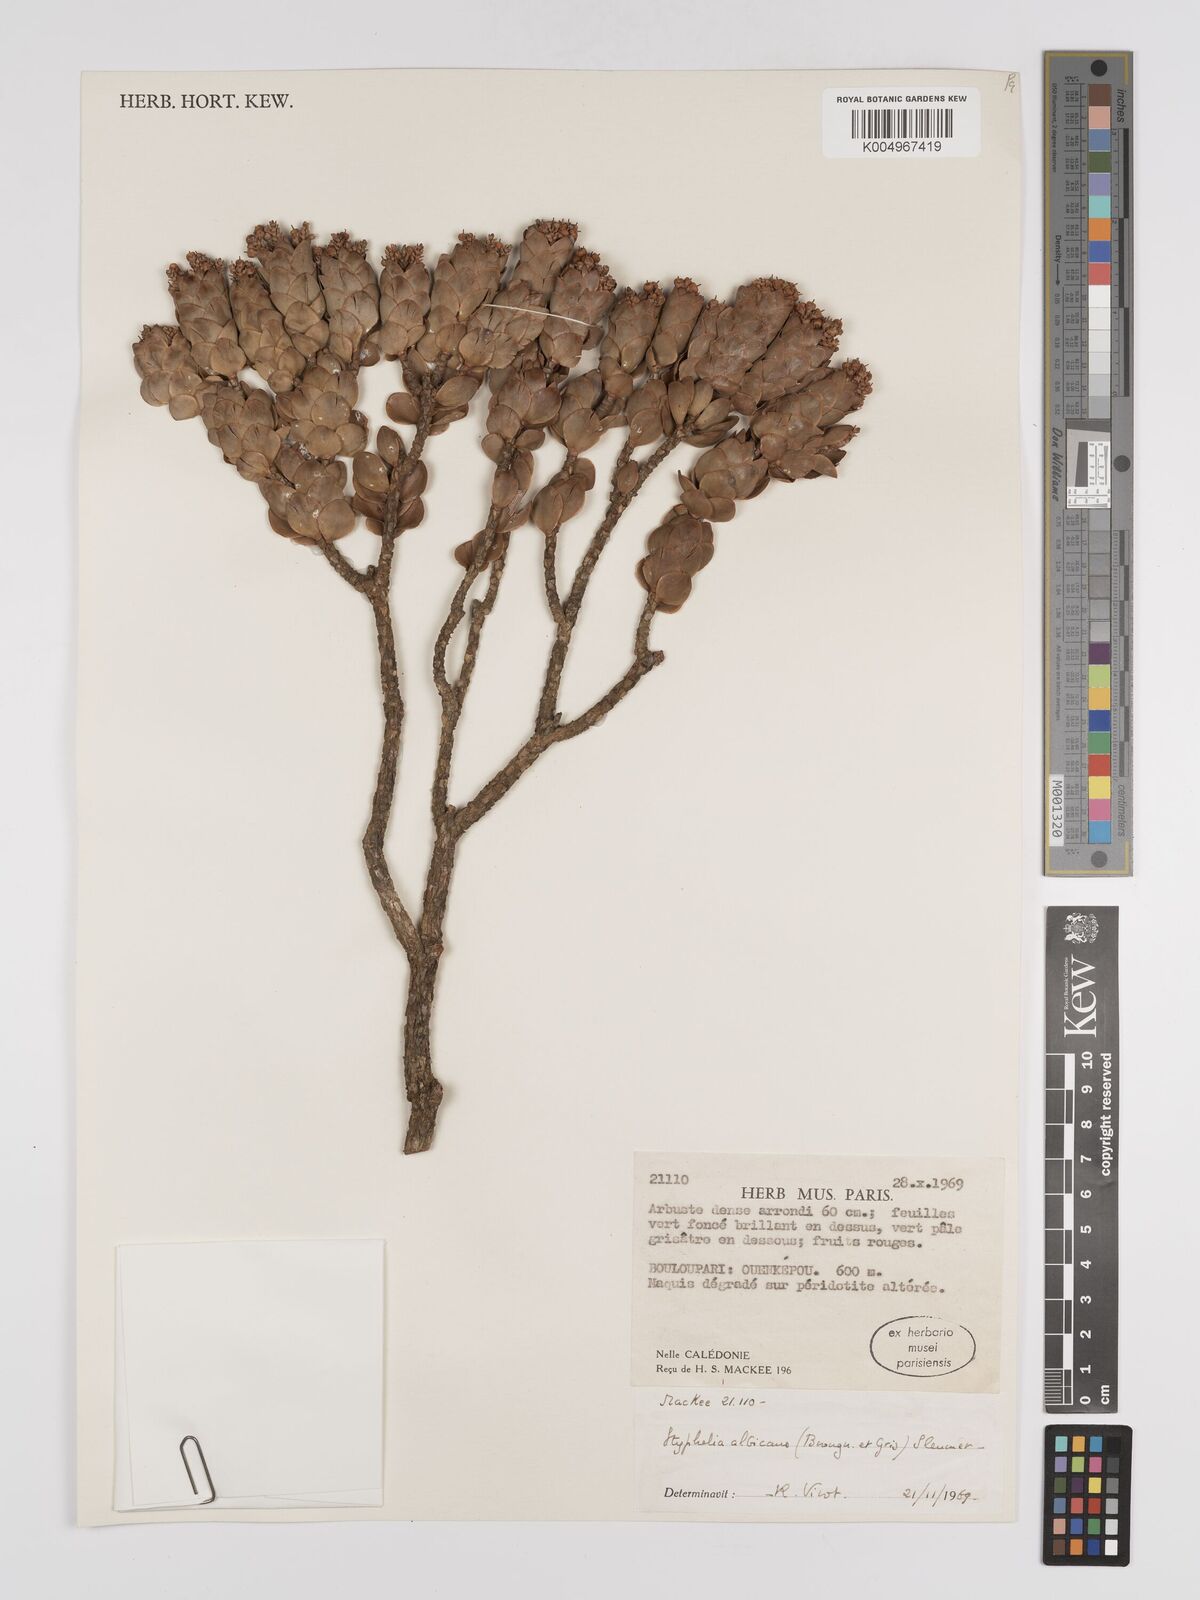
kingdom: Plantae
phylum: Tracheophyta
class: Magnoliopsida
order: Ericales
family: Ericaceae
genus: Cyathopsis
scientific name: Cyathopsis albicans
